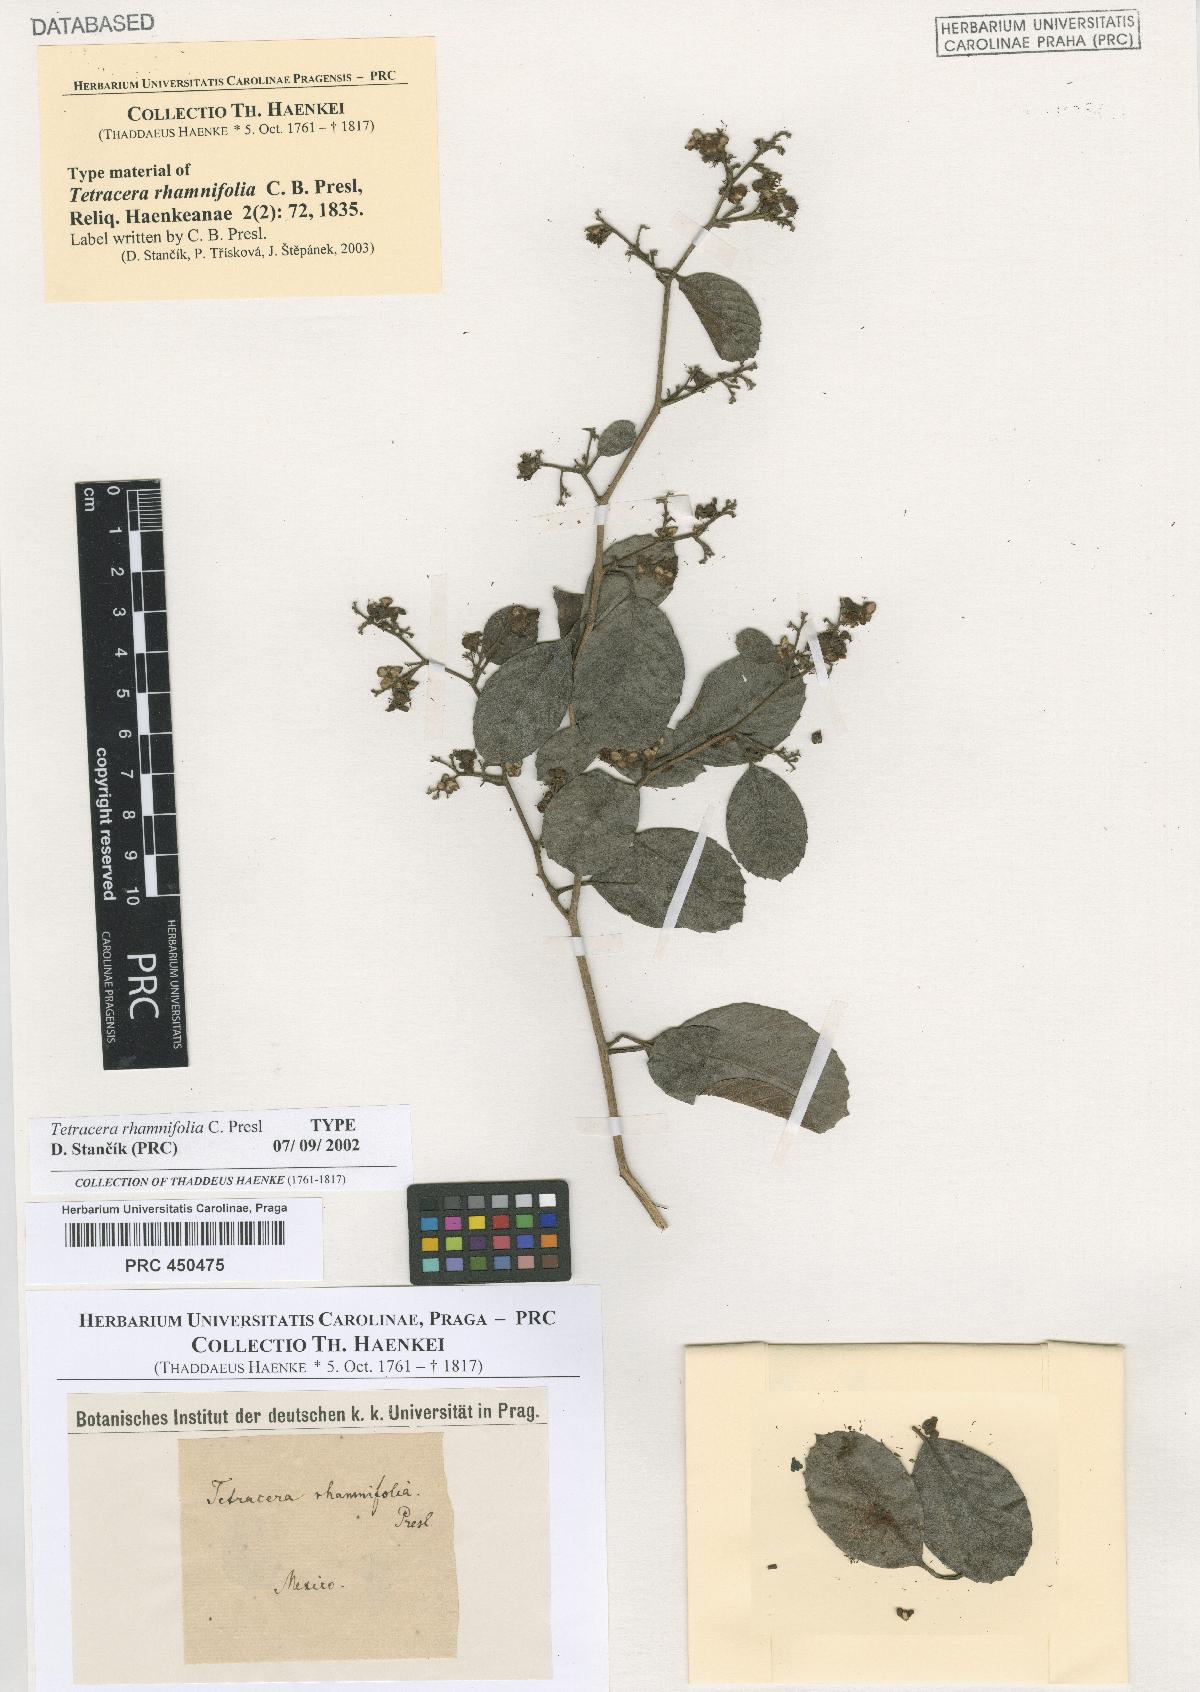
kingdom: Plantae
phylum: Tracheophyta
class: Magnoliopsida
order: Dilleniales
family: Dilleniaceae
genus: Tetracera
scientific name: Tetracera willdenowiana
